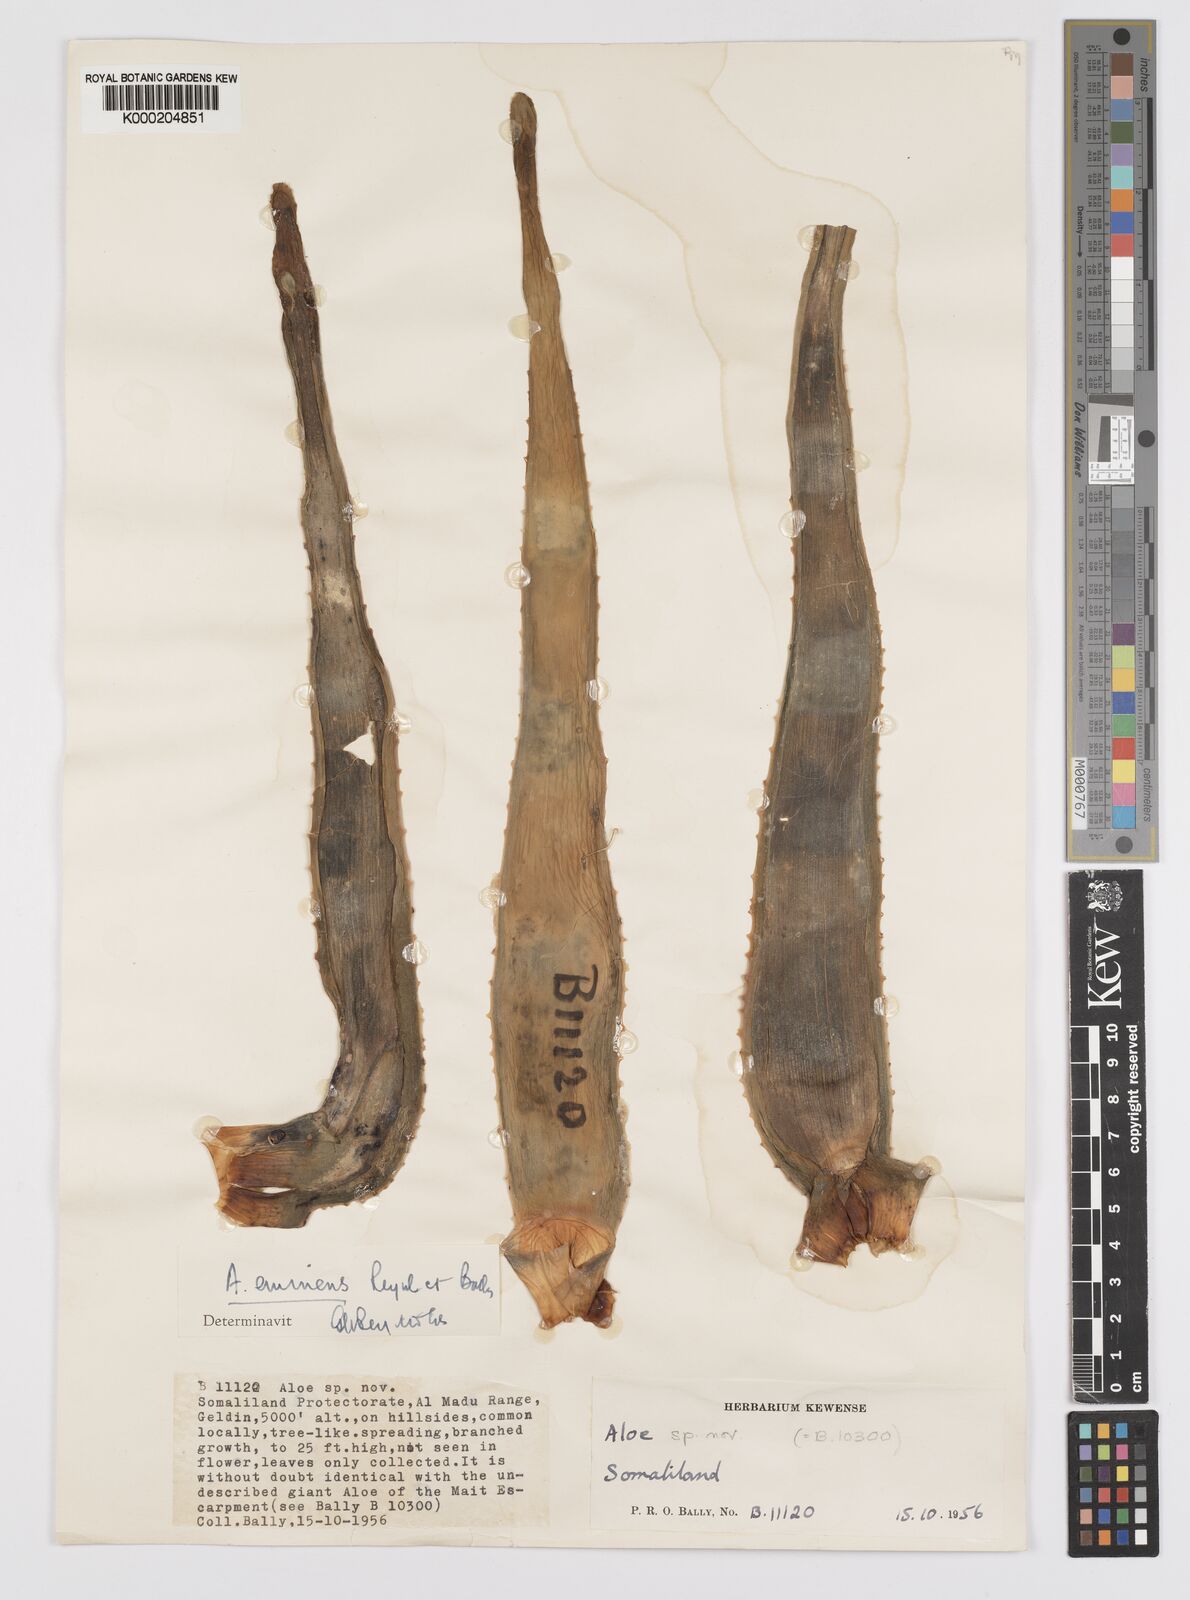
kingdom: Plantae
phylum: Tracheophyta
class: Liliopsida
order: Asparagales
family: Asphodelaceae
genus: Aloidendron
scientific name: Aloidendron eminens
